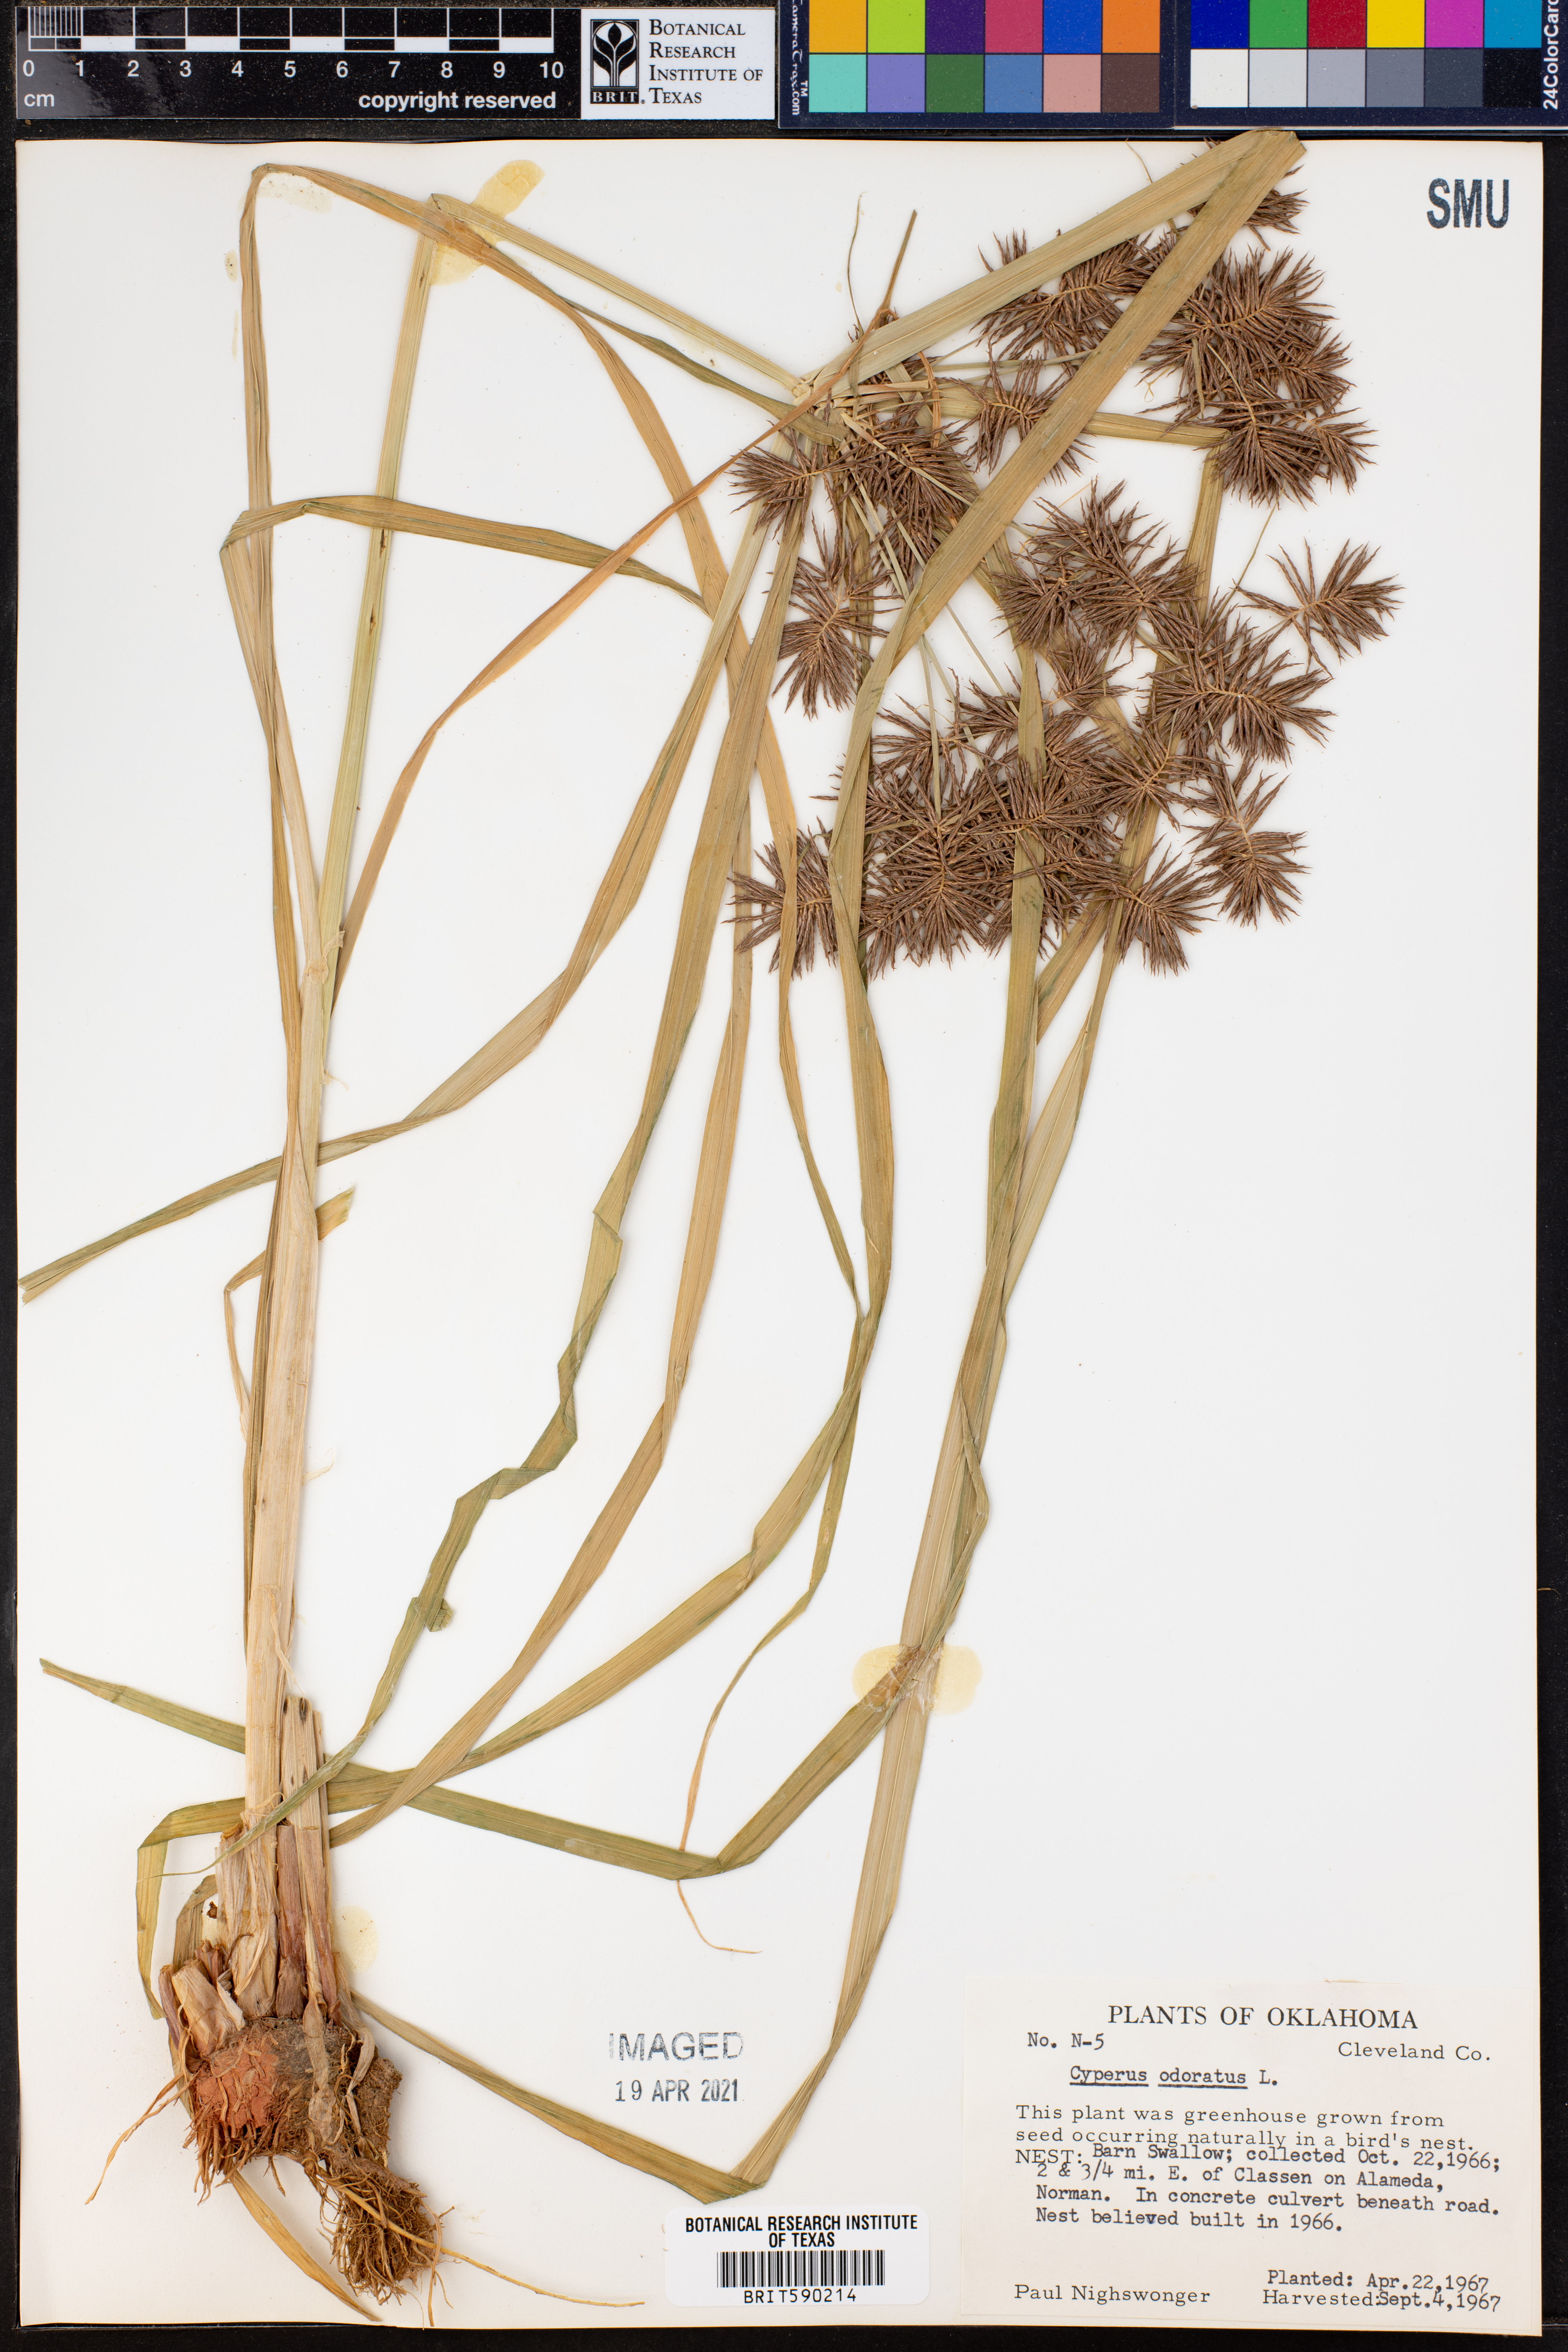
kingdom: Plantae
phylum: Tracheophyta
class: Liliopsida
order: Poales
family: Cyperaceae
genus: Cyperus
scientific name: Cyperus odoratus
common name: Fragrant flatsedge
